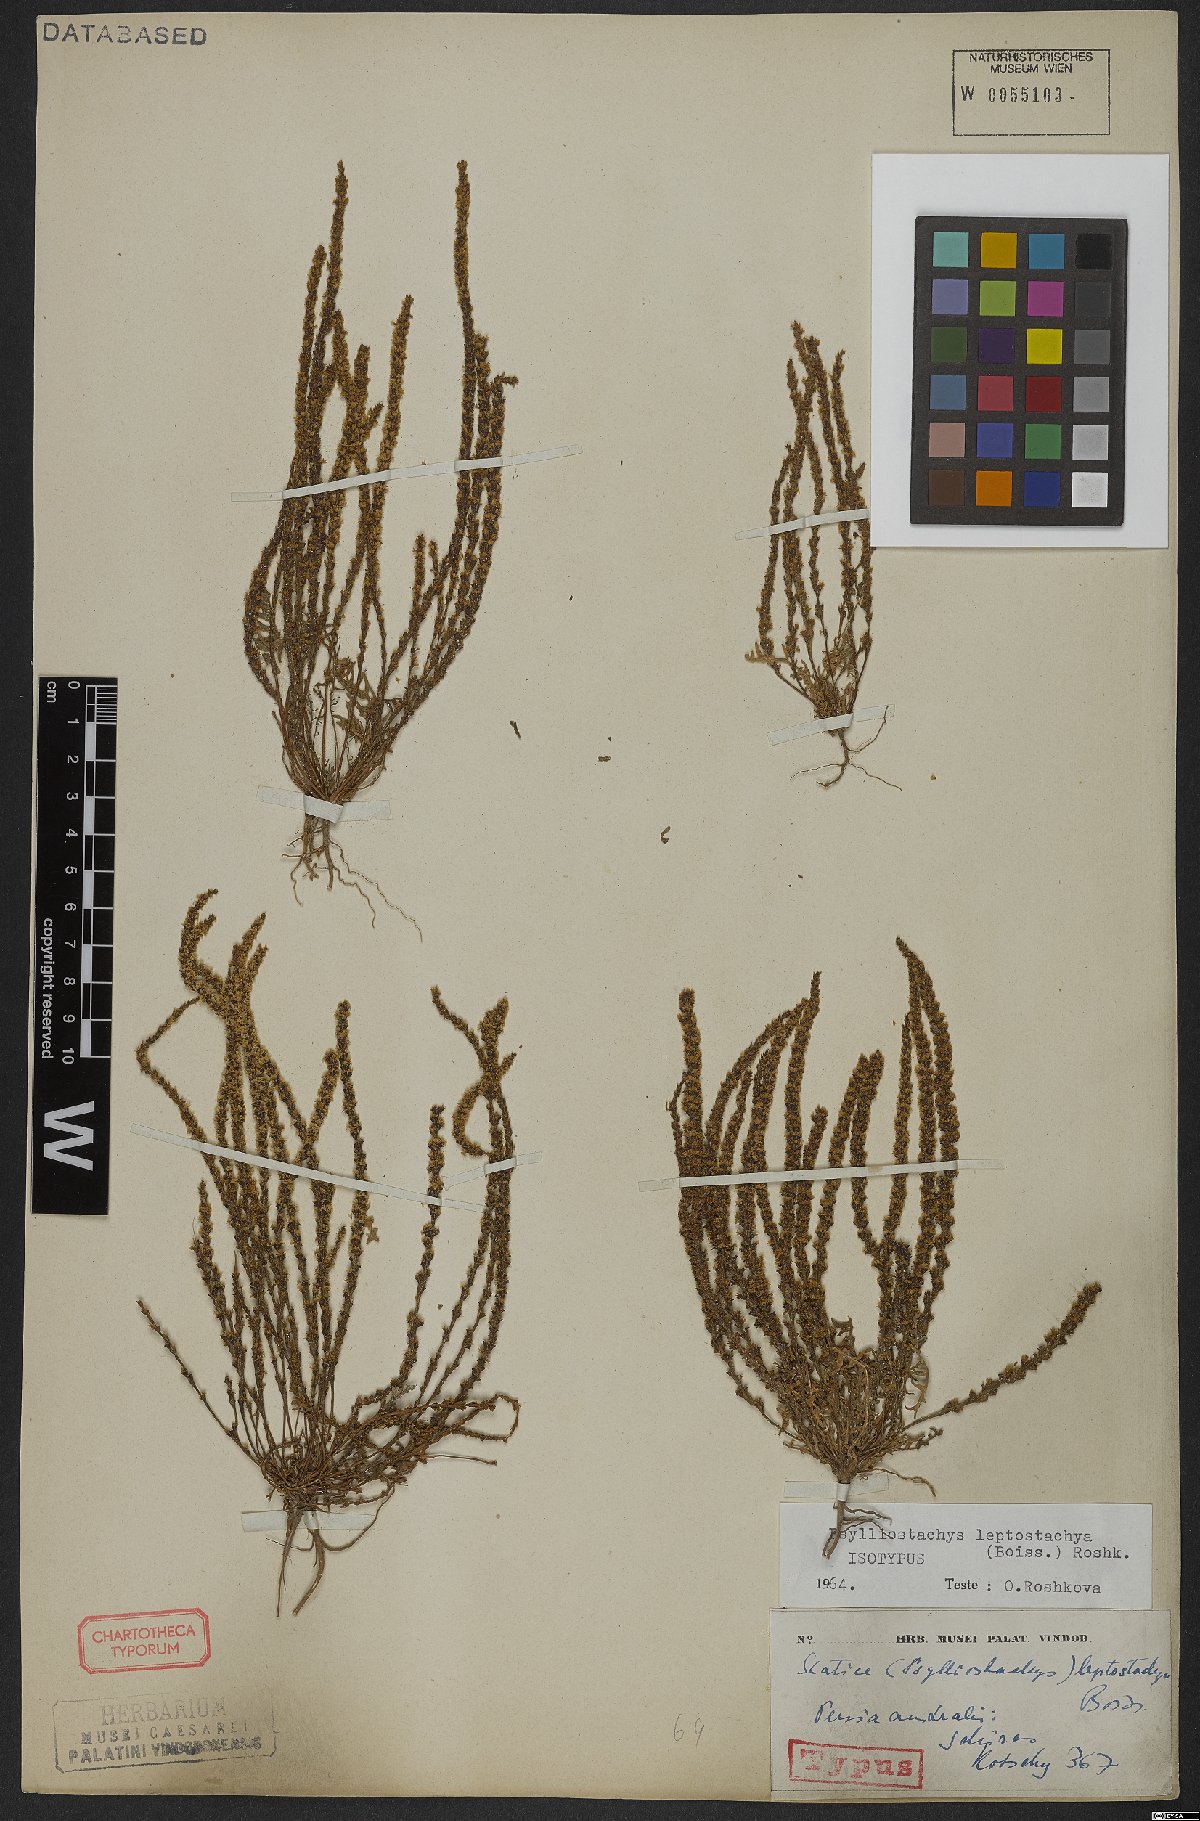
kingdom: Plantae
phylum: Tracheophyta
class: Magnoliopsida
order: Caryophyllales
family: Plumbaginaceae
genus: Psylliostachys
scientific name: Psylliostachys leptostachyus
